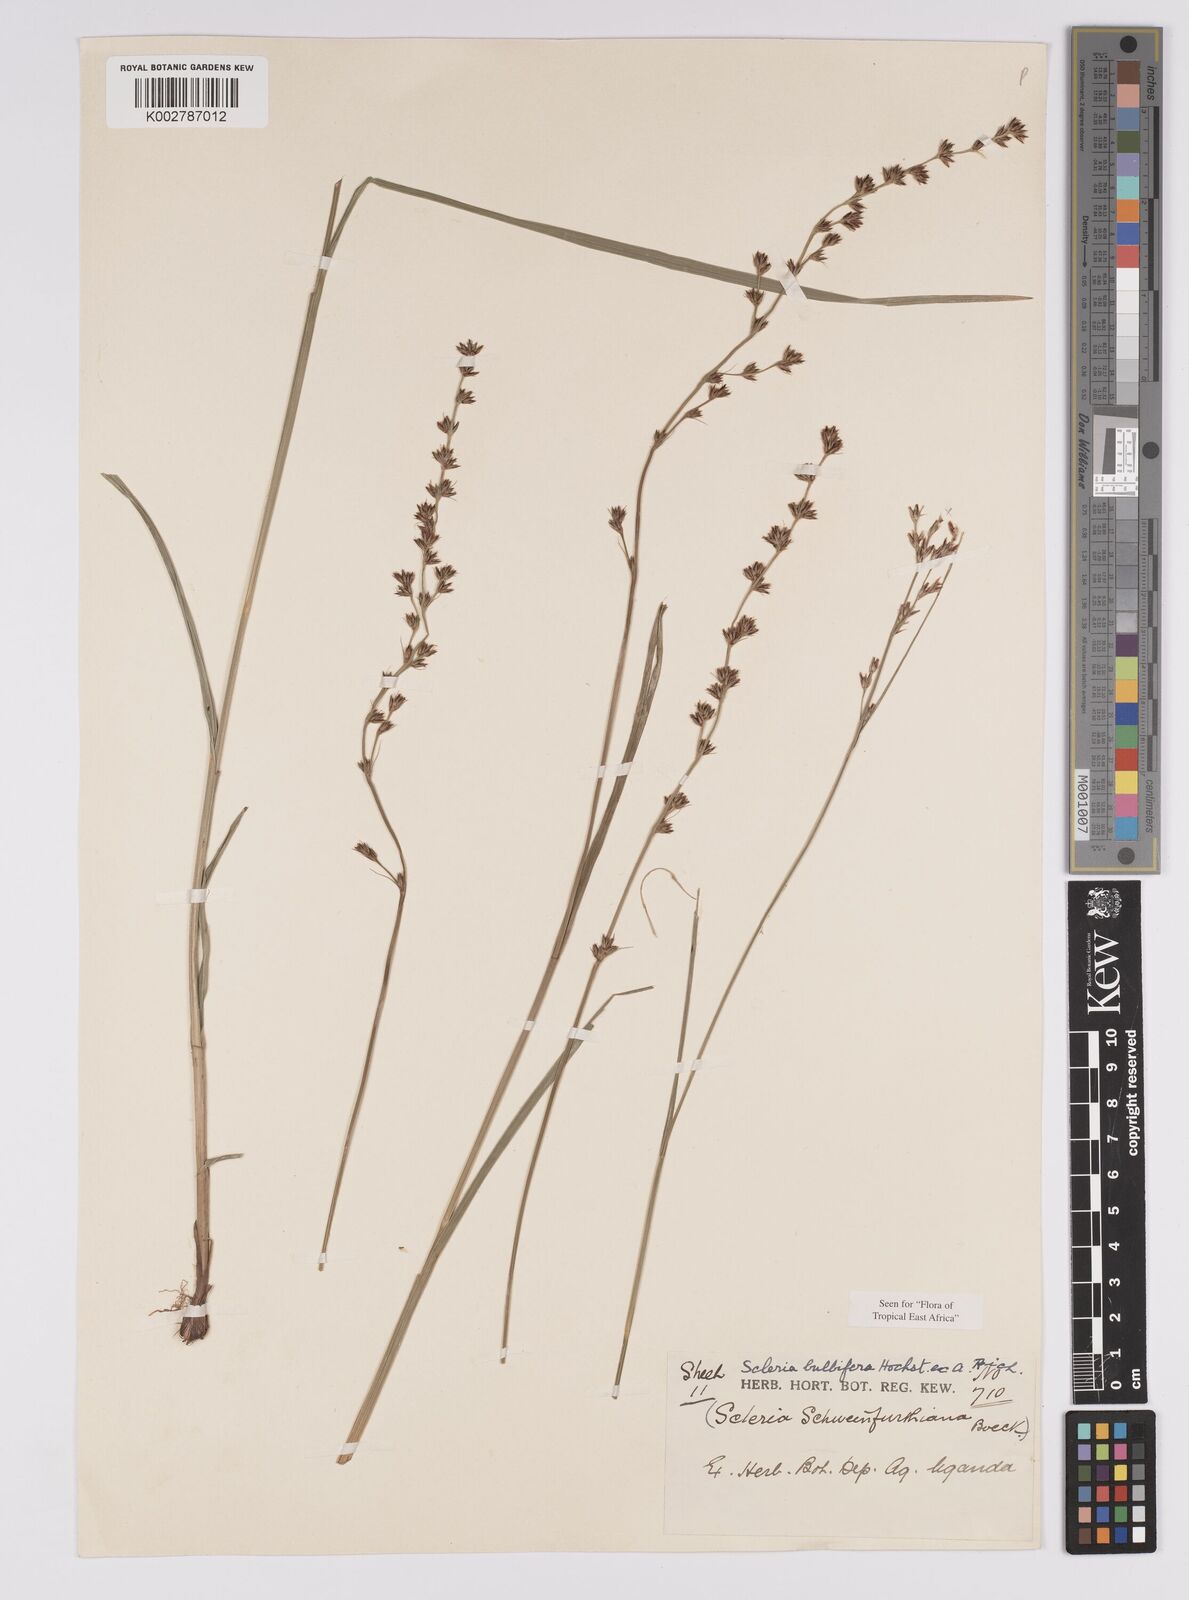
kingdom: Plantae
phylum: Tracheophyta
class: Liliopsida
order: Poales
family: Cyperaceae
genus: Scleria
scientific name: Scleria bulbifera
